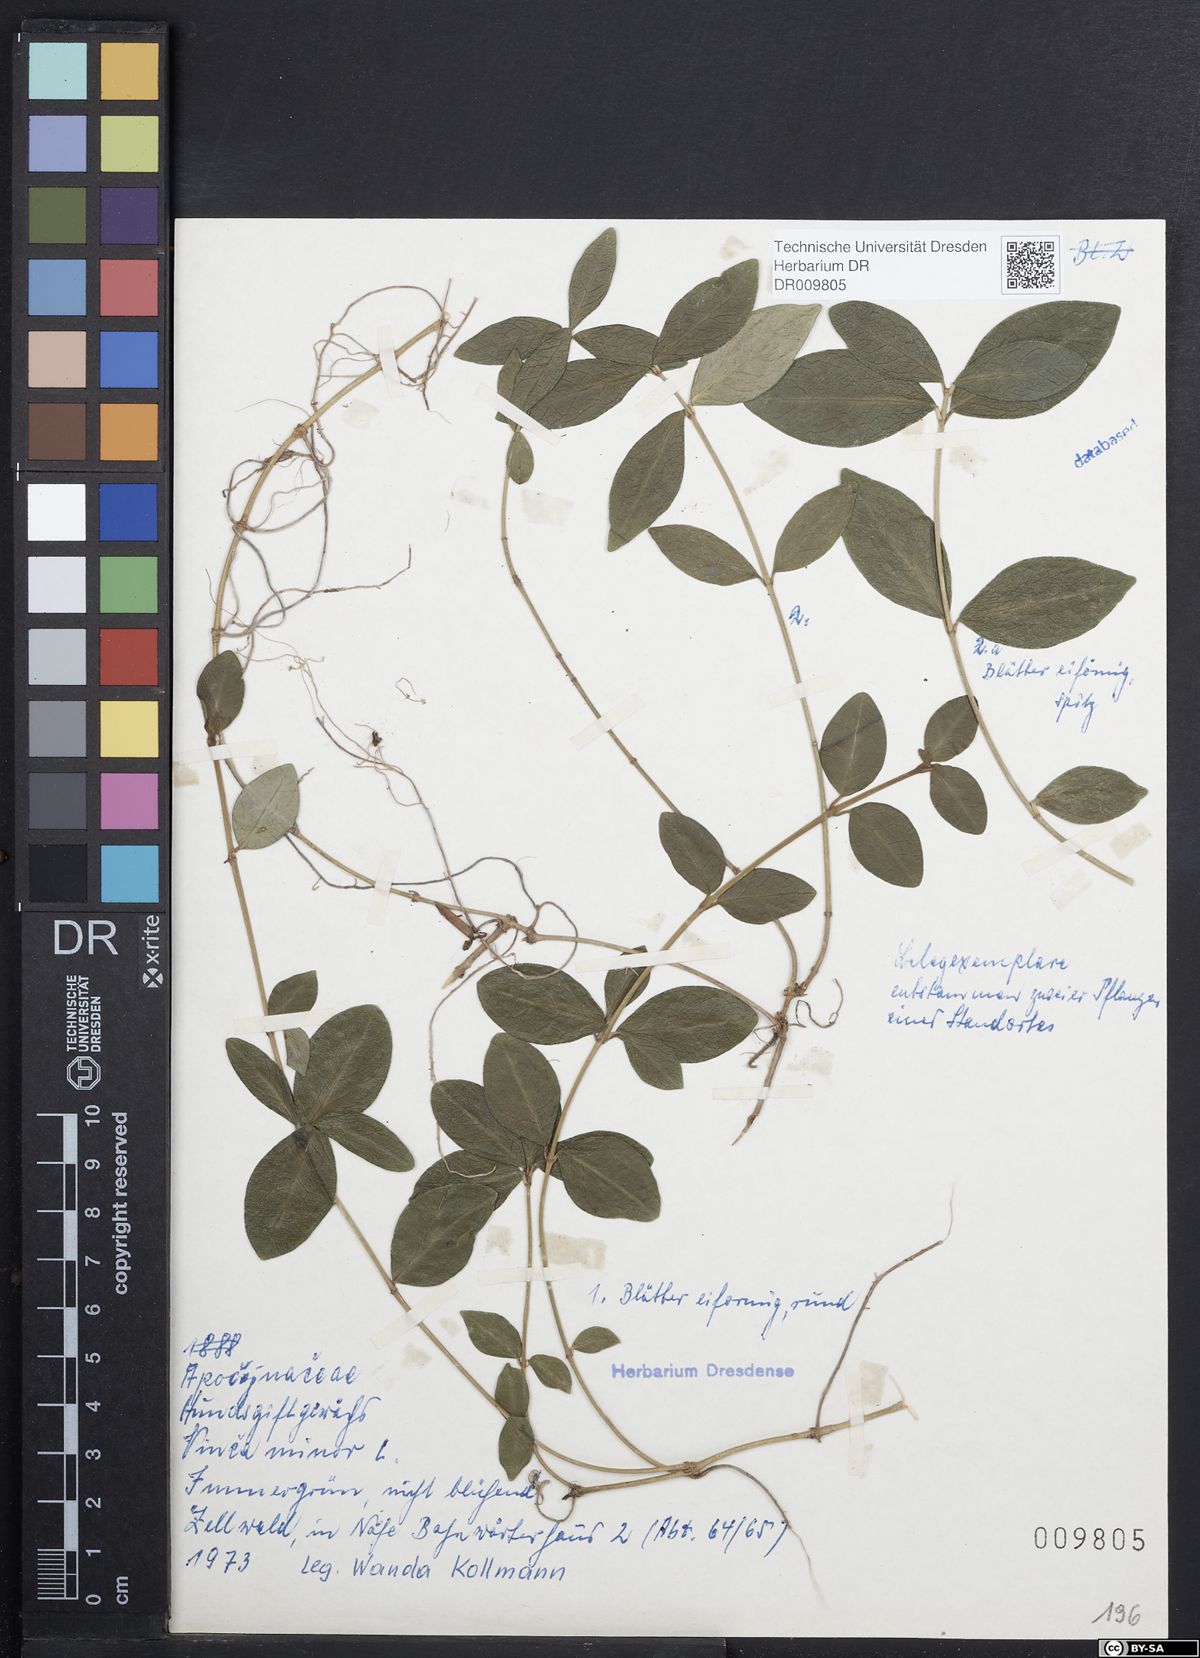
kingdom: Plantae
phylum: Tracheophyta
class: Magnoliopsida
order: Gentianales
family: Apocynaceae
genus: Vinca
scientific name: Vinca minor
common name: Lesser periwinkle
